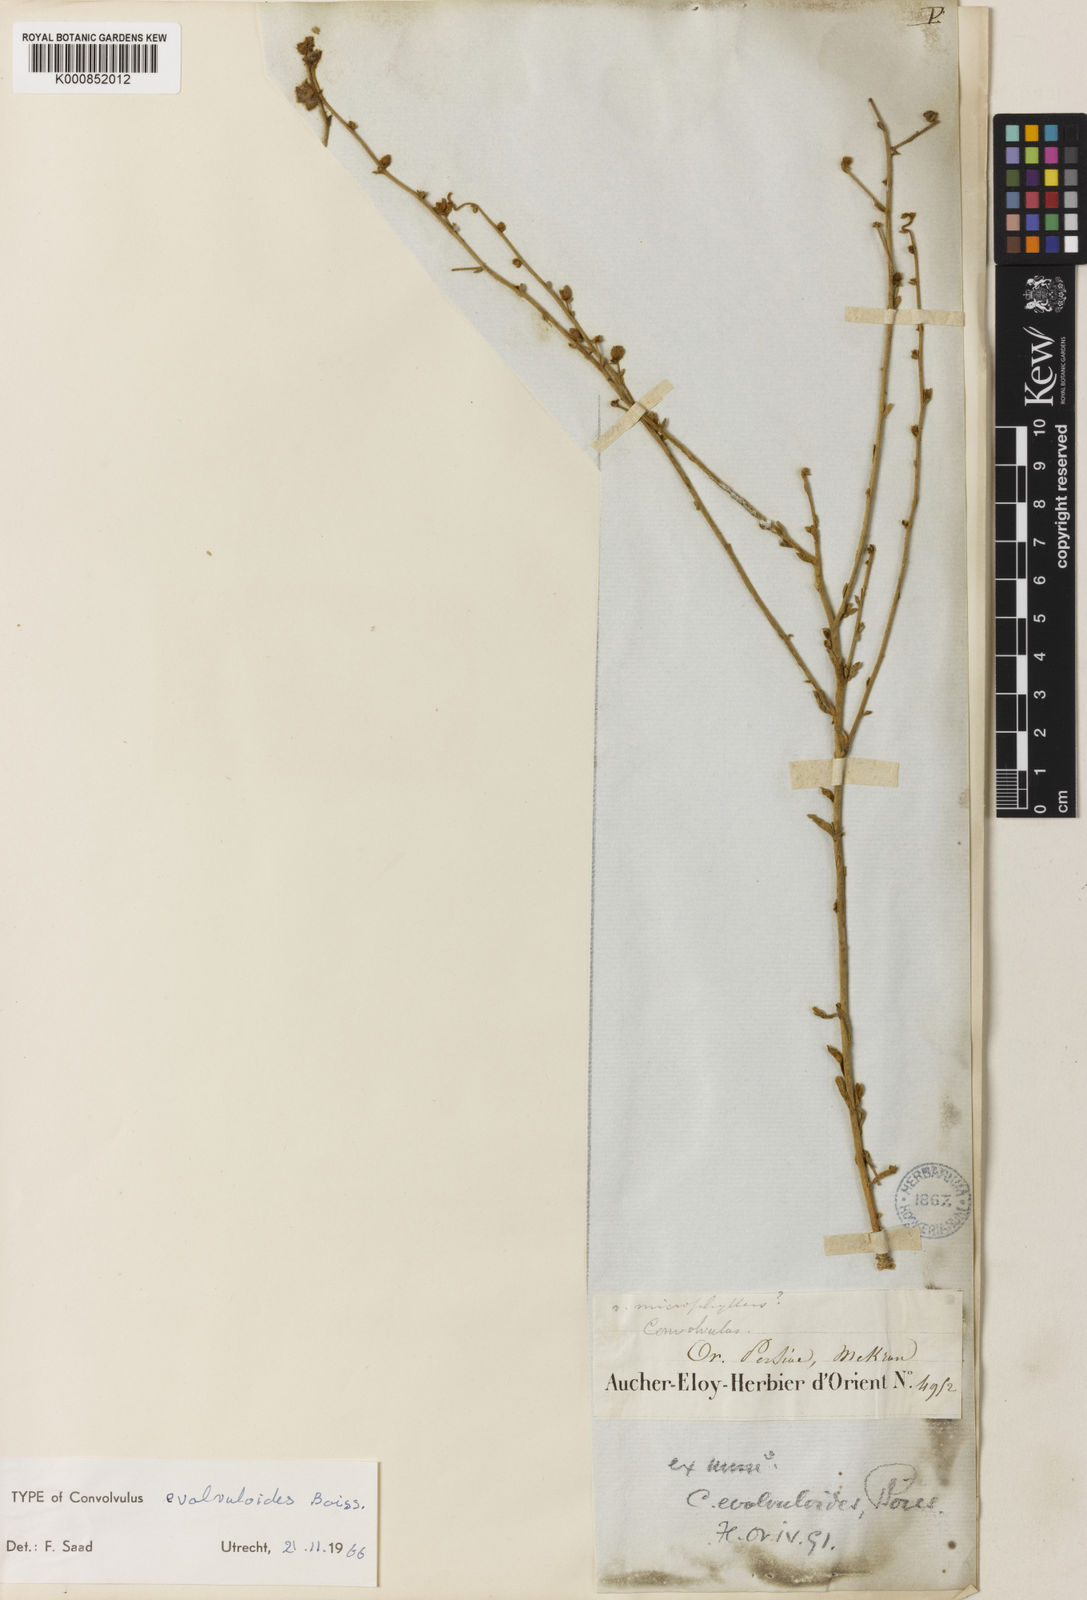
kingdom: Plantae
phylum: Tracheophyta
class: Magnoliopsida
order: Solanales
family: Convolvulaceae
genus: Convolvulus
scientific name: Convolvulus prostratus
